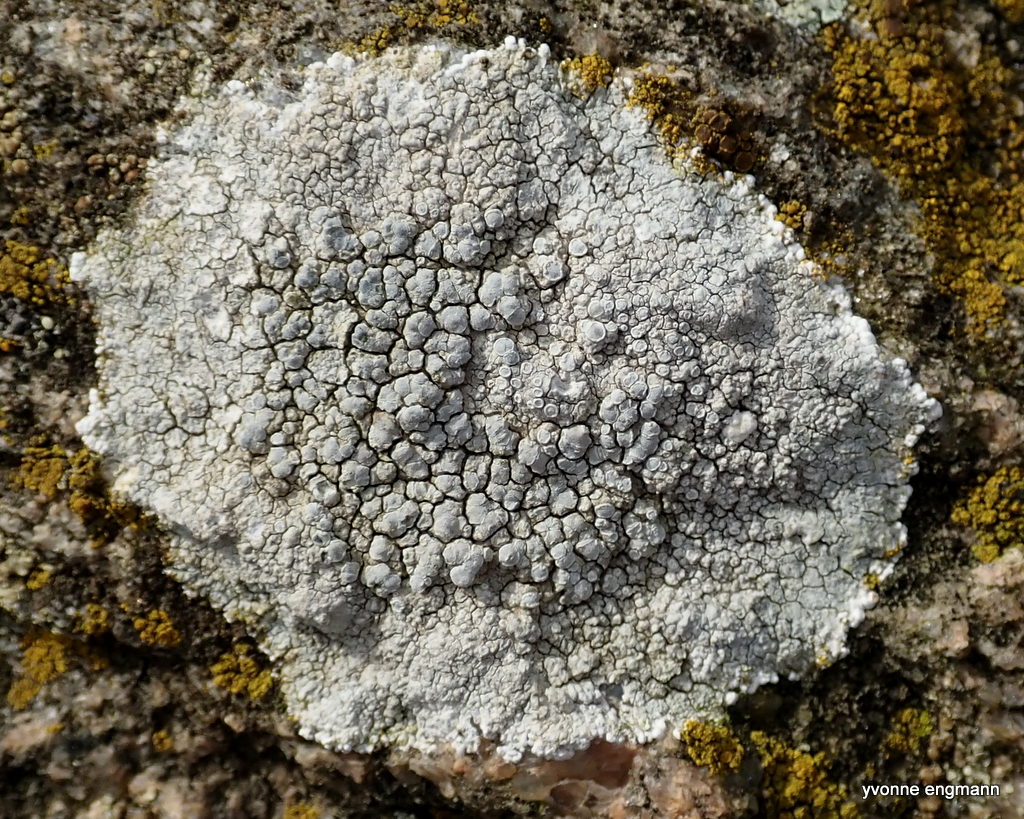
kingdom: Fungi
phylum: Ascomycota
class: Lecanoromycetes
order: Lecanorales
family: Lecanoraceae
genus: Glaucomaria
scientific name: Glaucomaria rupicola
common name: stengærde-kantskivelav
